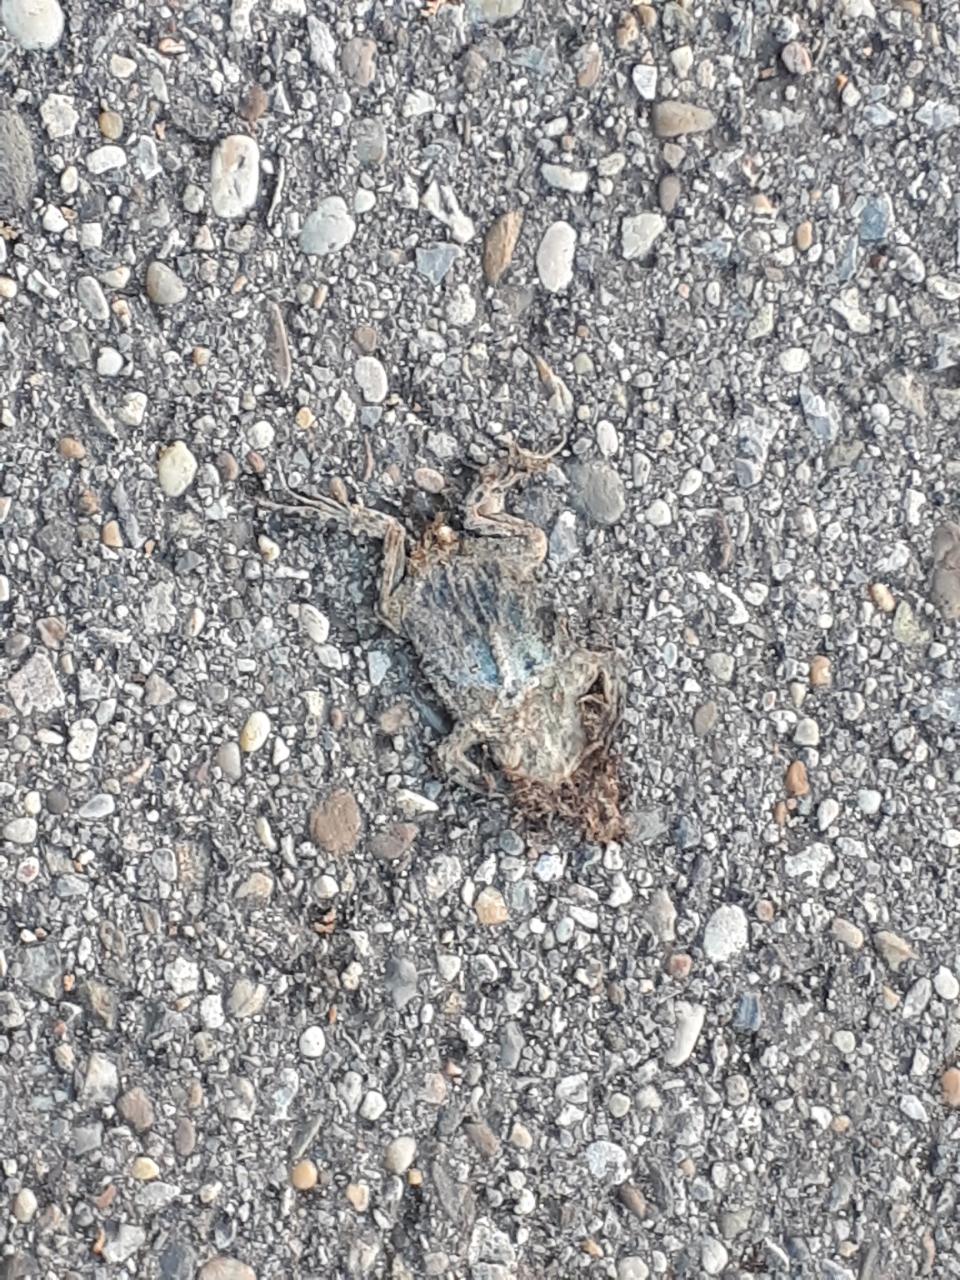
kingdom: Animalia
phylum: Chordata
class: Amphibia
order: Anura
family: Bufonidae
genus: Bufotes
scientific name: Bufotes viridis
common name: European green toad
